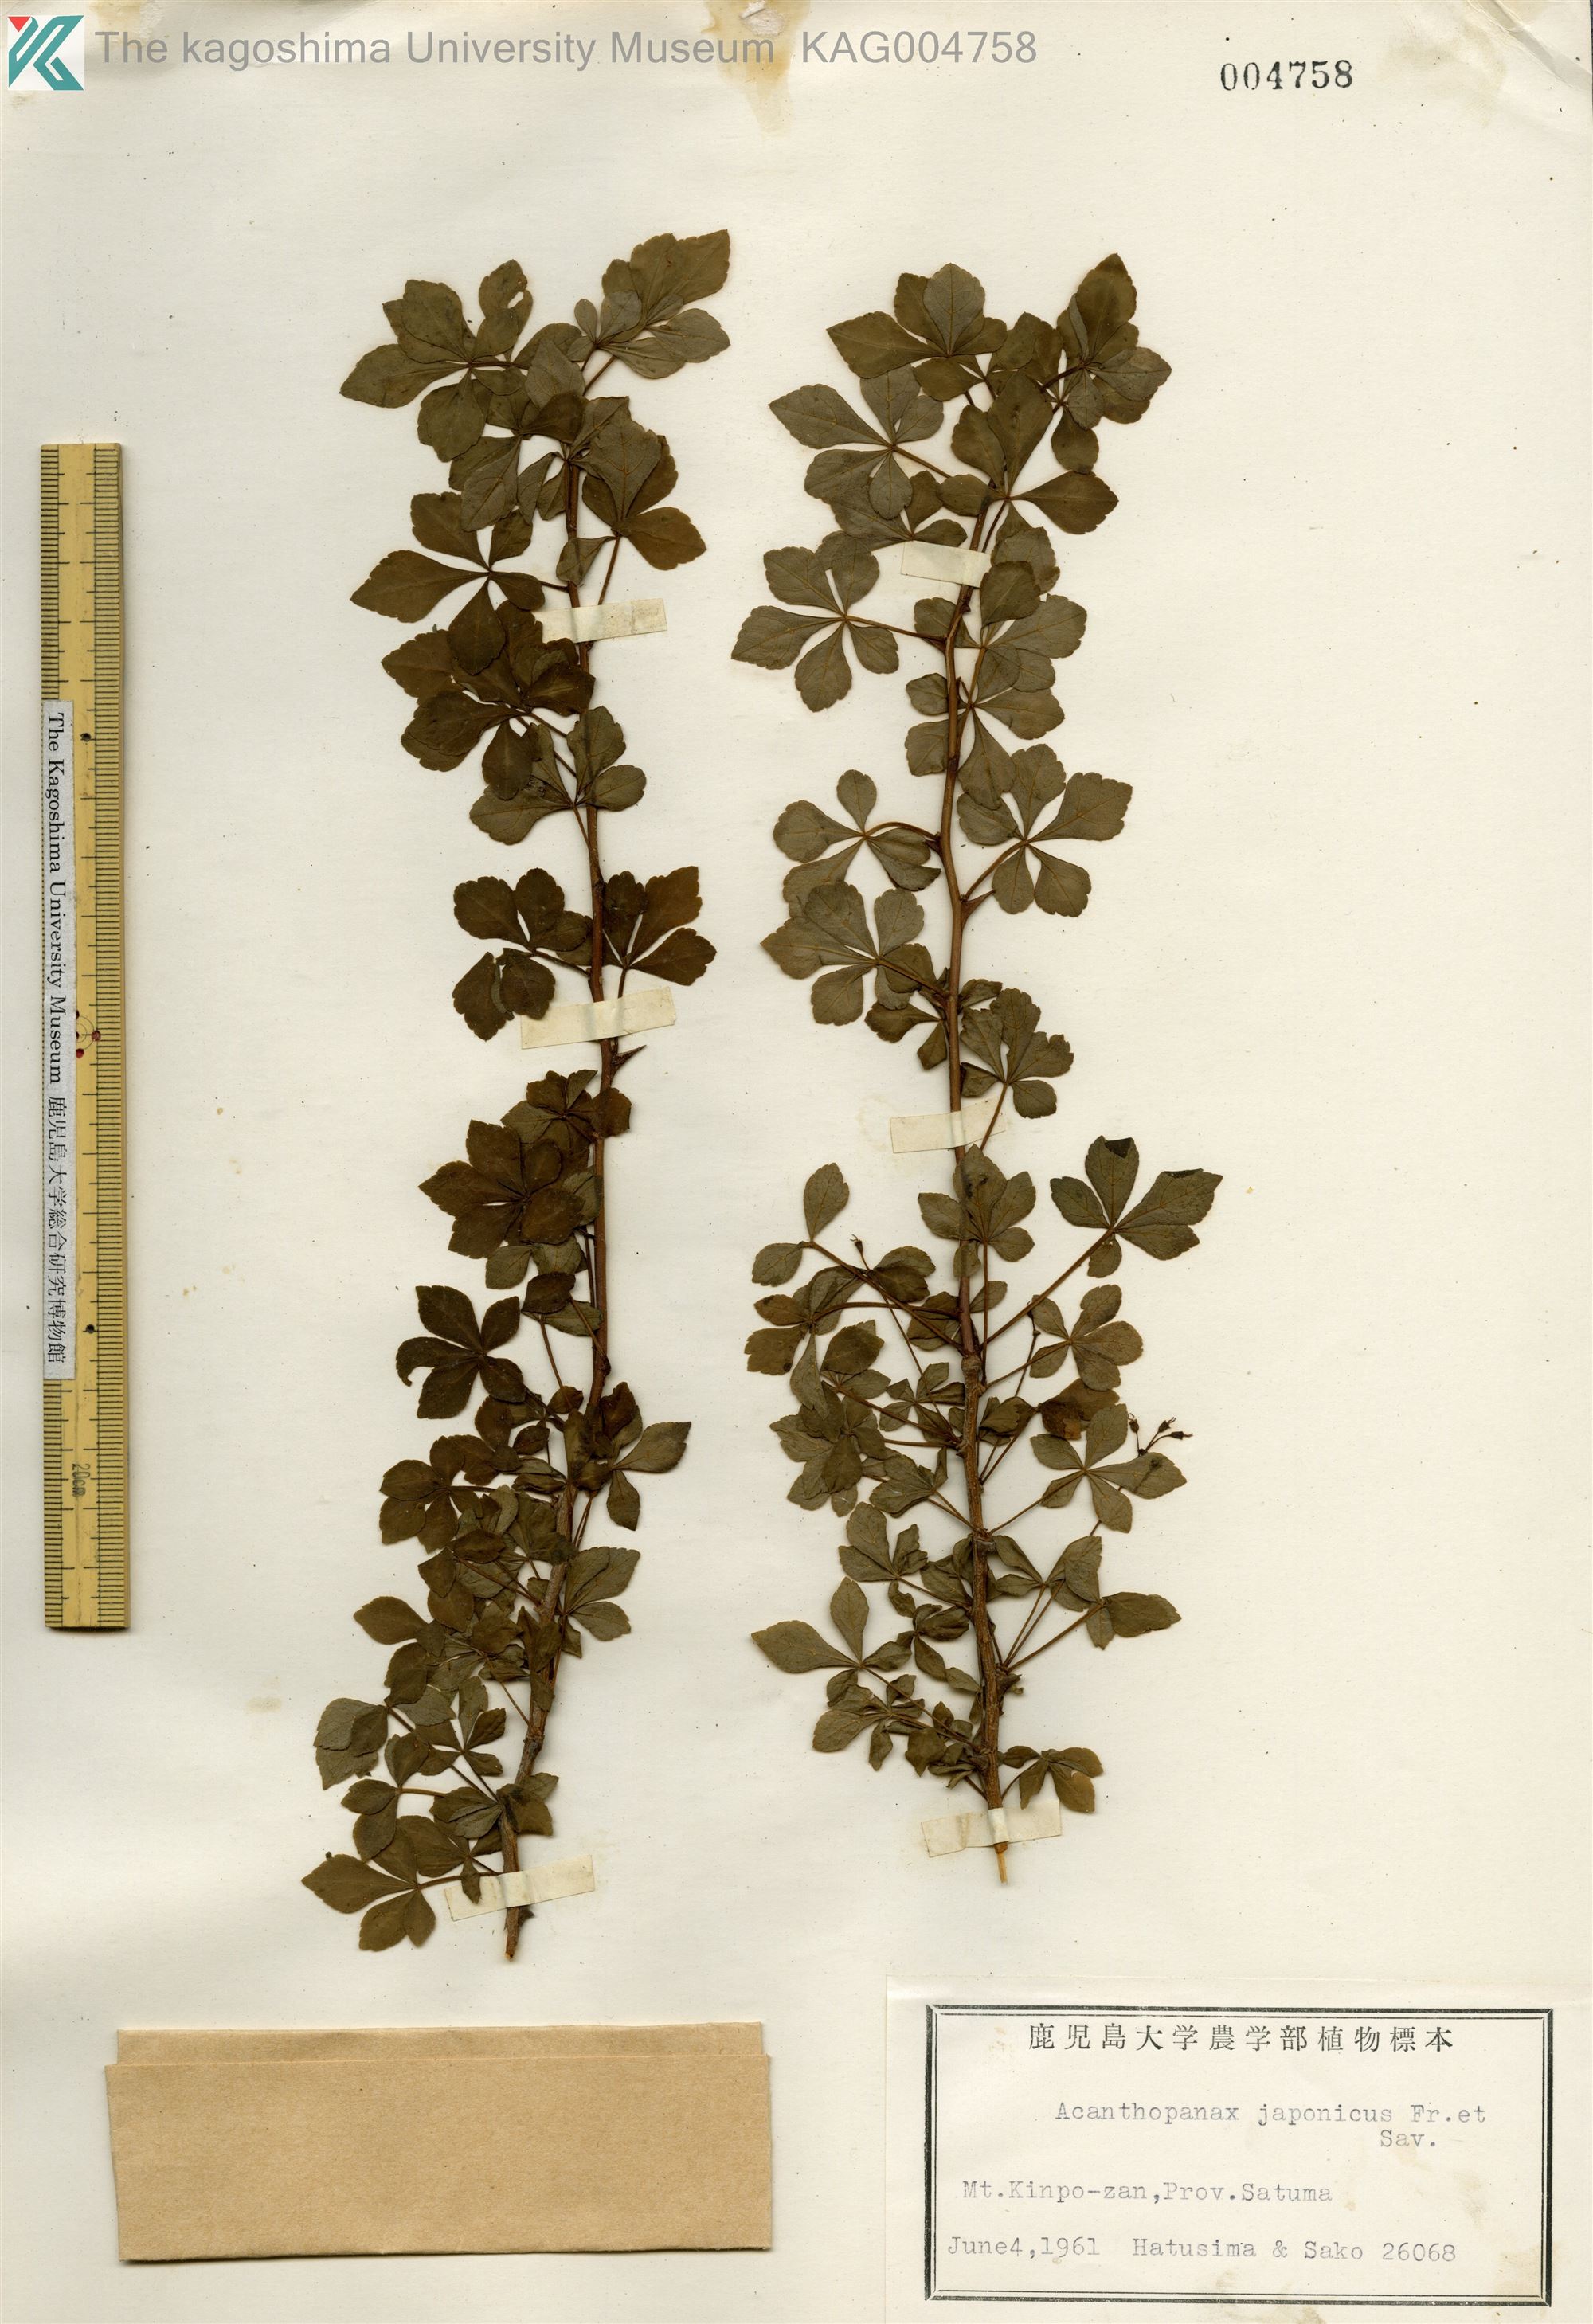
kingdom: Plantae
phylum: Tracheophyta
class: Magnoliopsida
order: Apiales
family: Araliaceae
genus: Eleutherococcus
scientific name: Eleutherococcus japonicus
